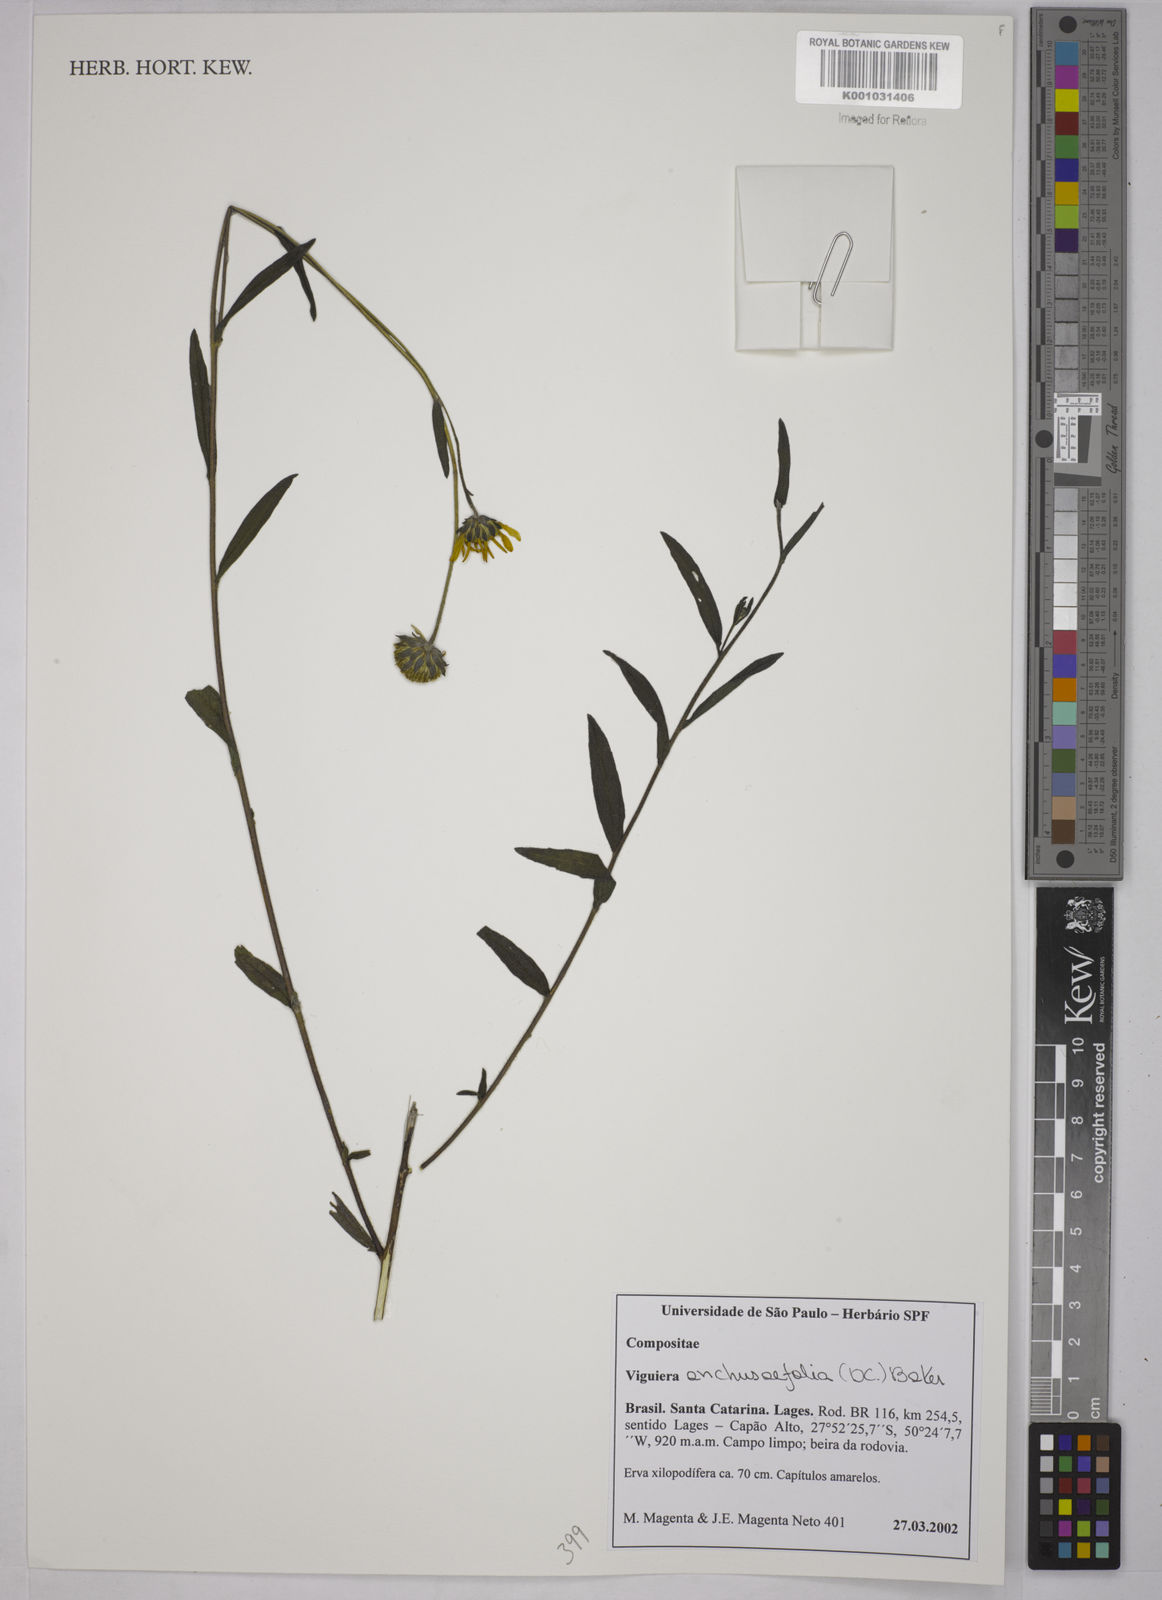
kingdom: Plantae
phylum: Tracheophyta
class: Magnoliopsida
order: Asterales
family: Asteraceae
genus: Viguiera
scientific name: Viguiera
